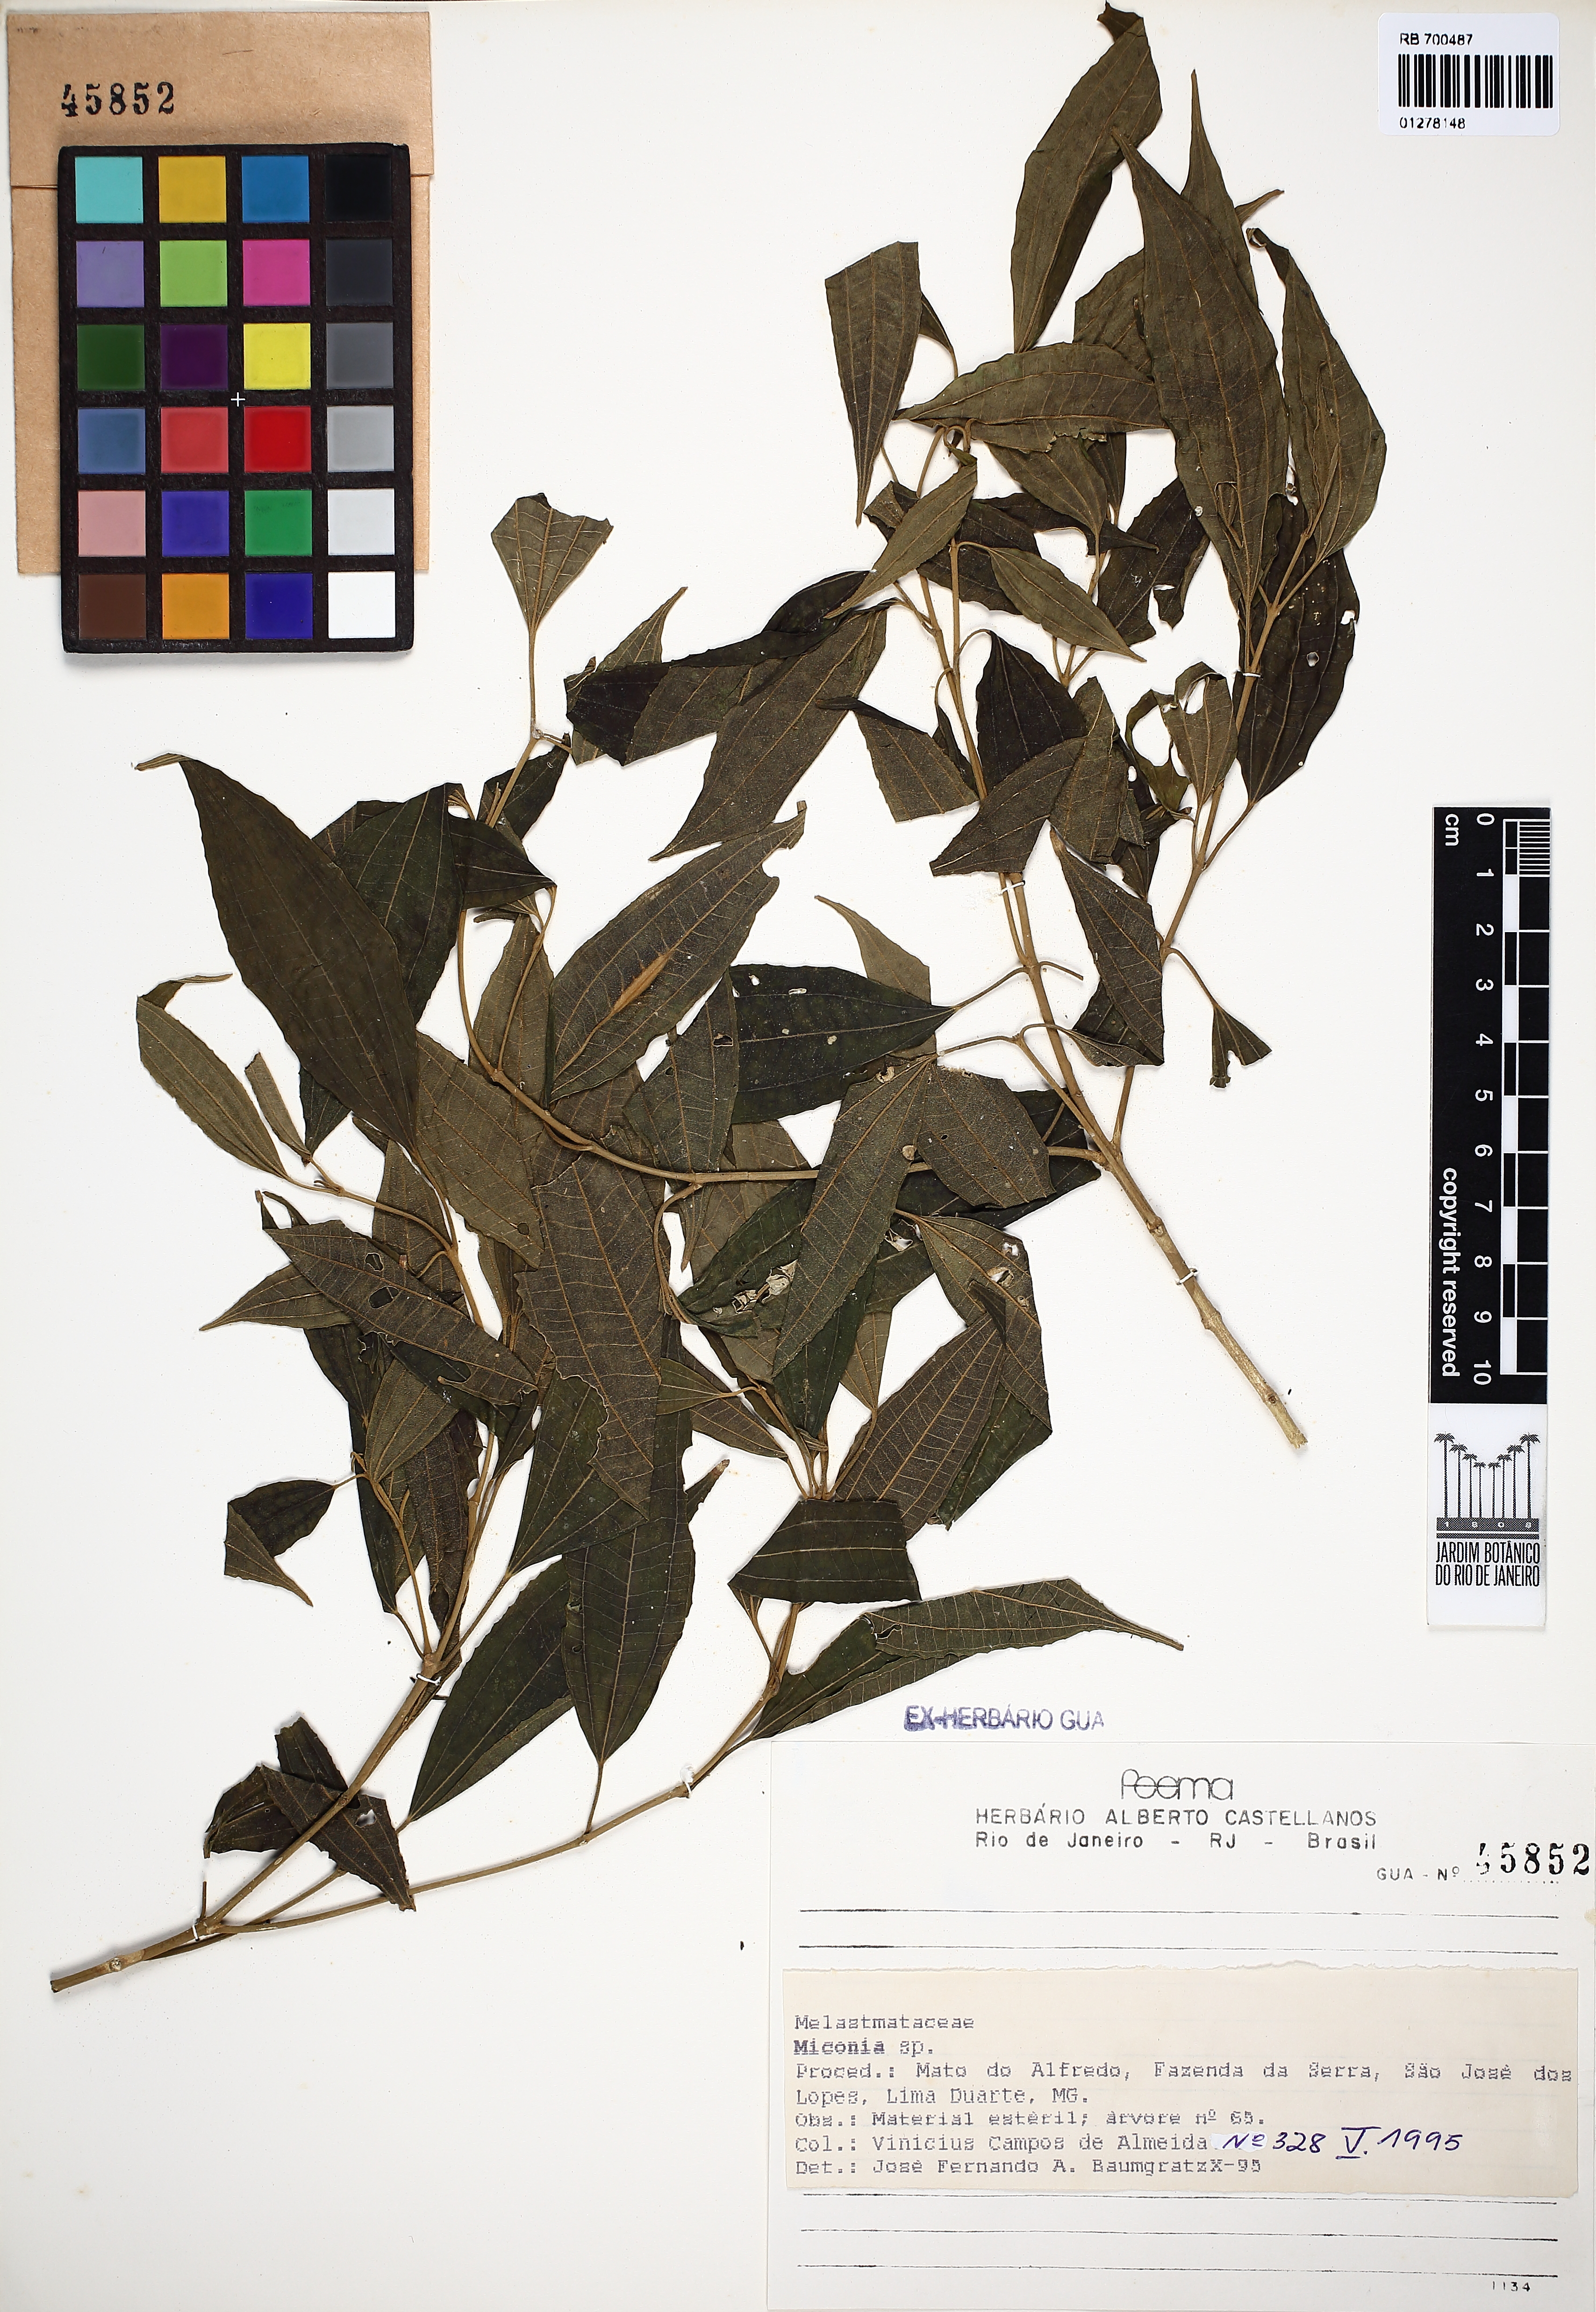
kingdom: Plantae
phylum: Tracheophyta
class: Magnoliopsida
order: Myrtales
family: Melastomataceae
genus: Miconia
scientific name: Miconia
